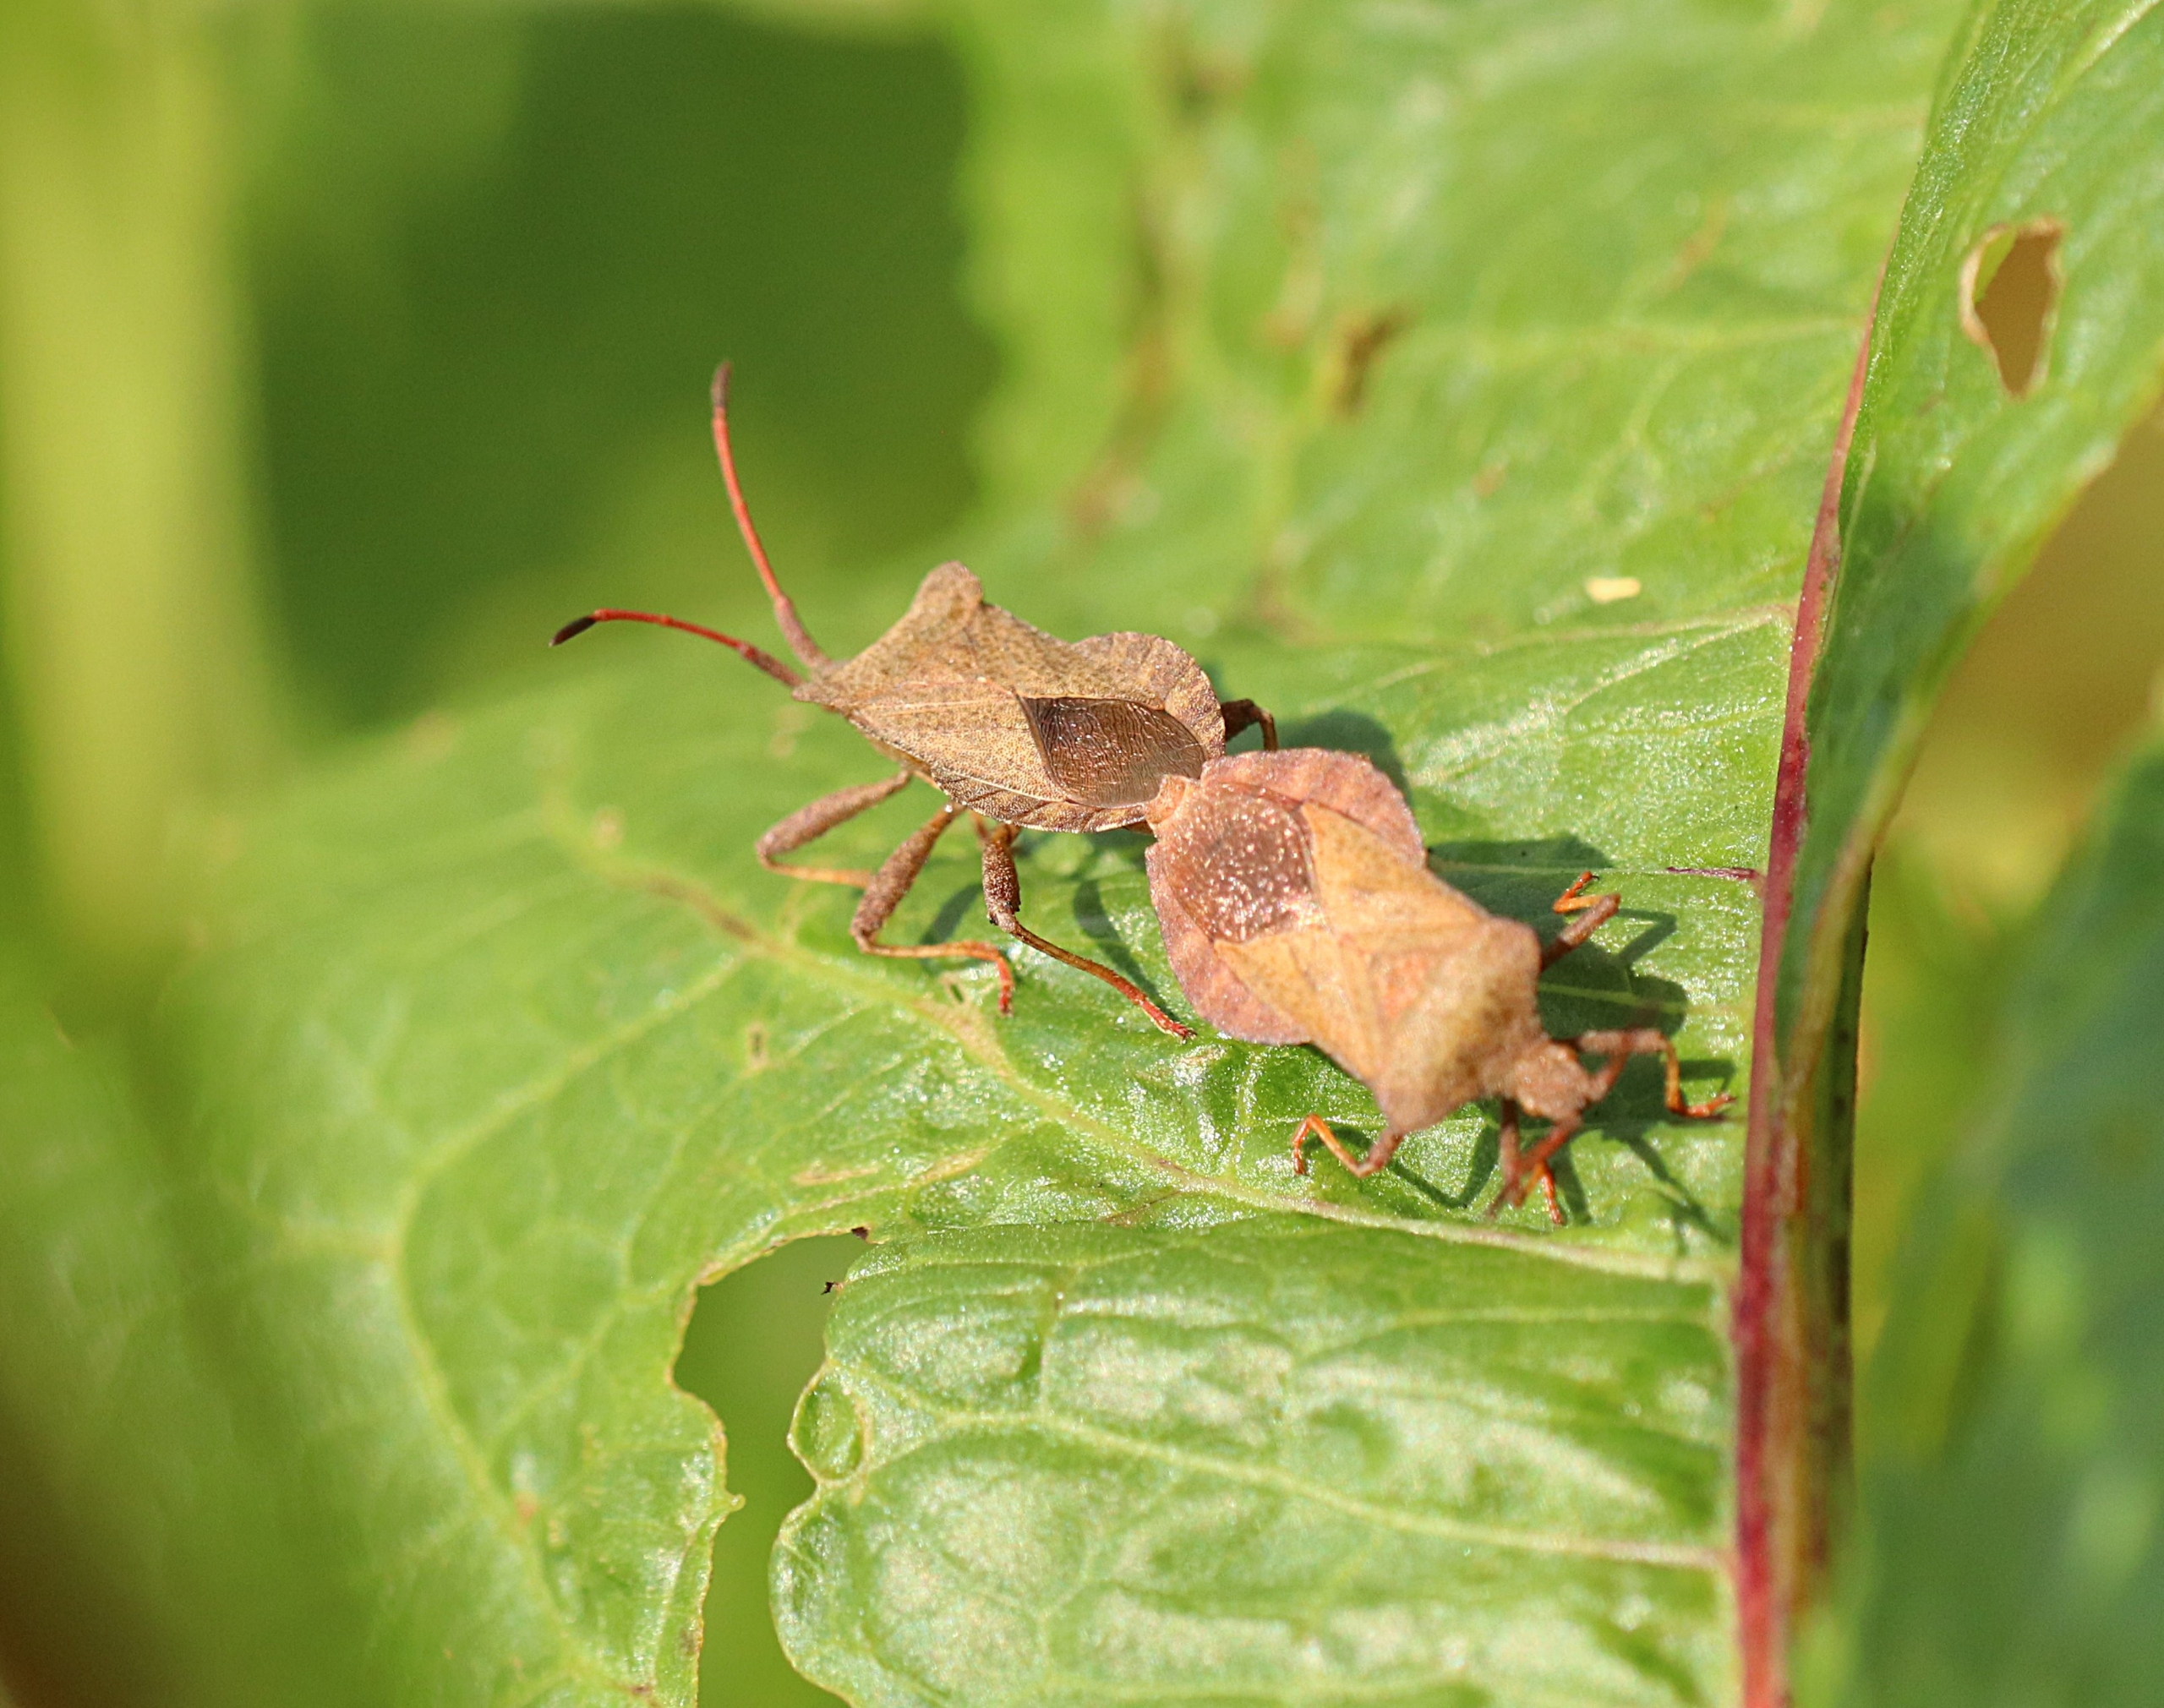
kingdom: Animalia
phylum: Arthropoda
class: Insecta
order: Hemiptera
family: Coreidae
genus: Coreus
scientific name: Coreus marginatus
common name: Skræppetæge
